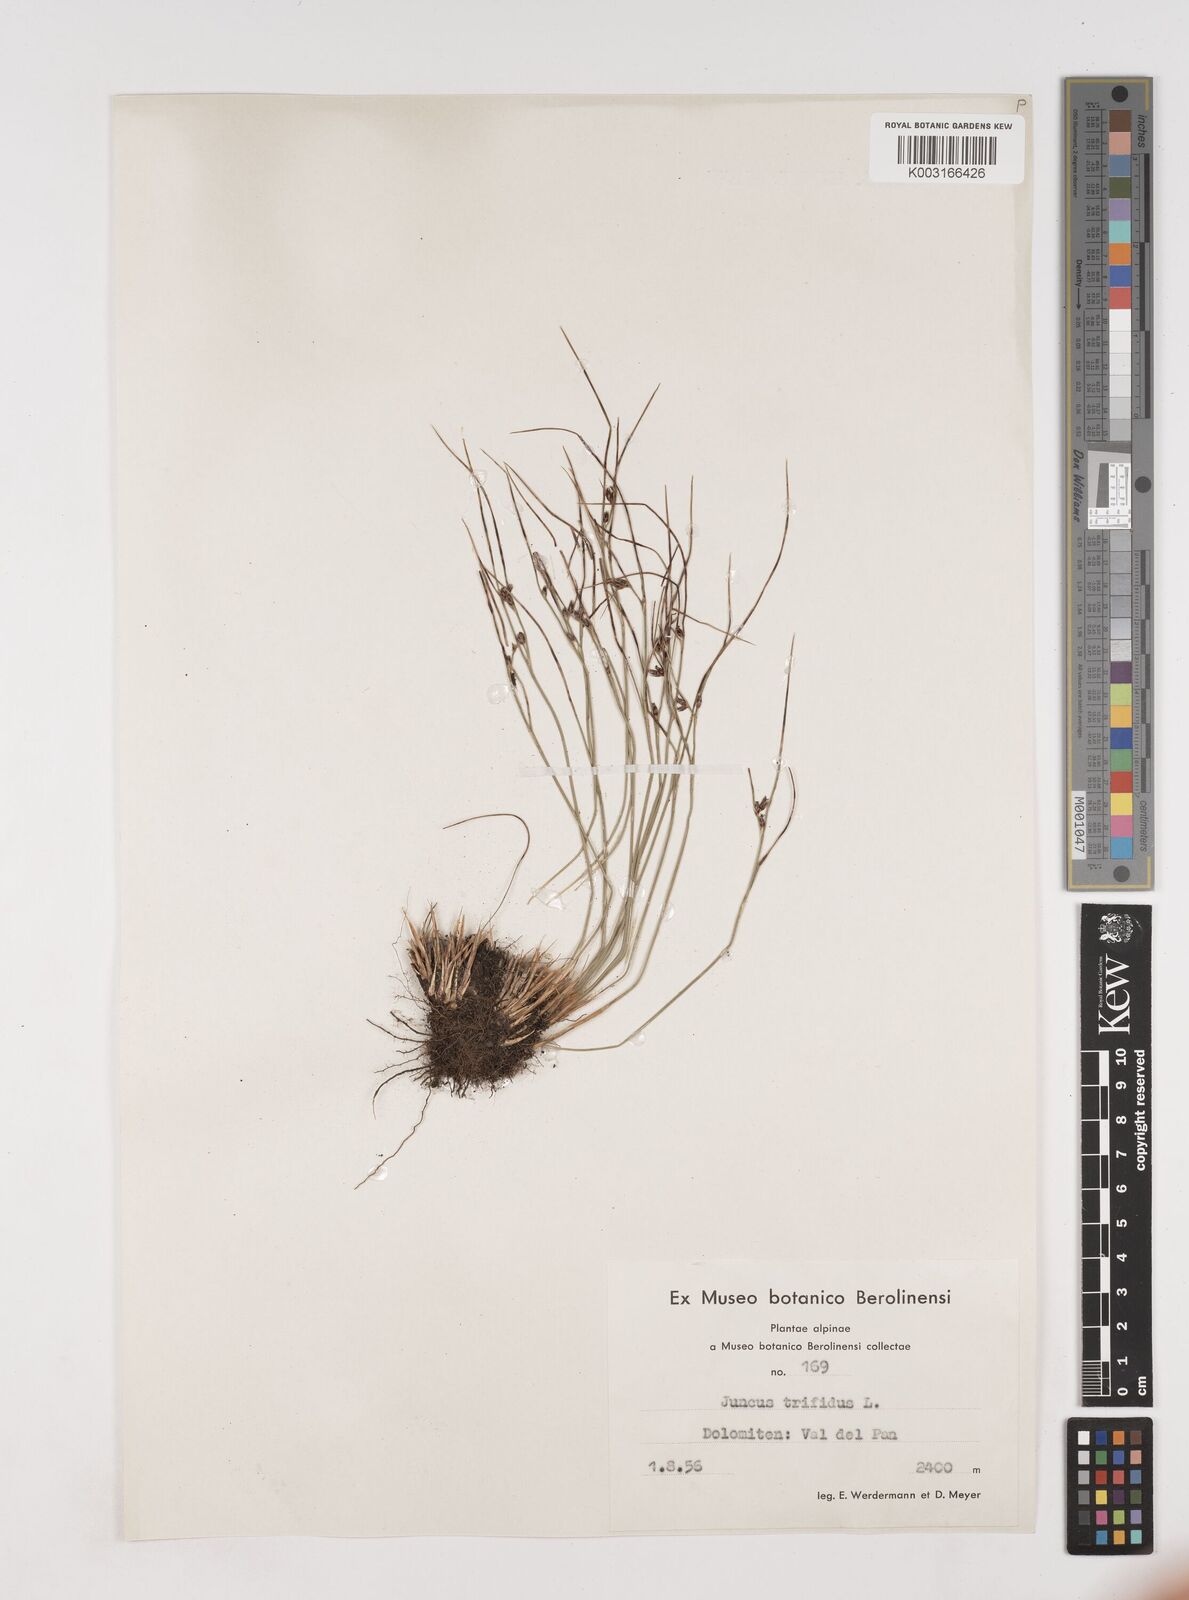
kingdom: Plantae
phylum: Tracheophyta
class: Liliopsida
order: Poales
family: Juncaceae
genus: Oreojuncus
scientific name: Oreojuncus trifidus
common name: Highland rush
